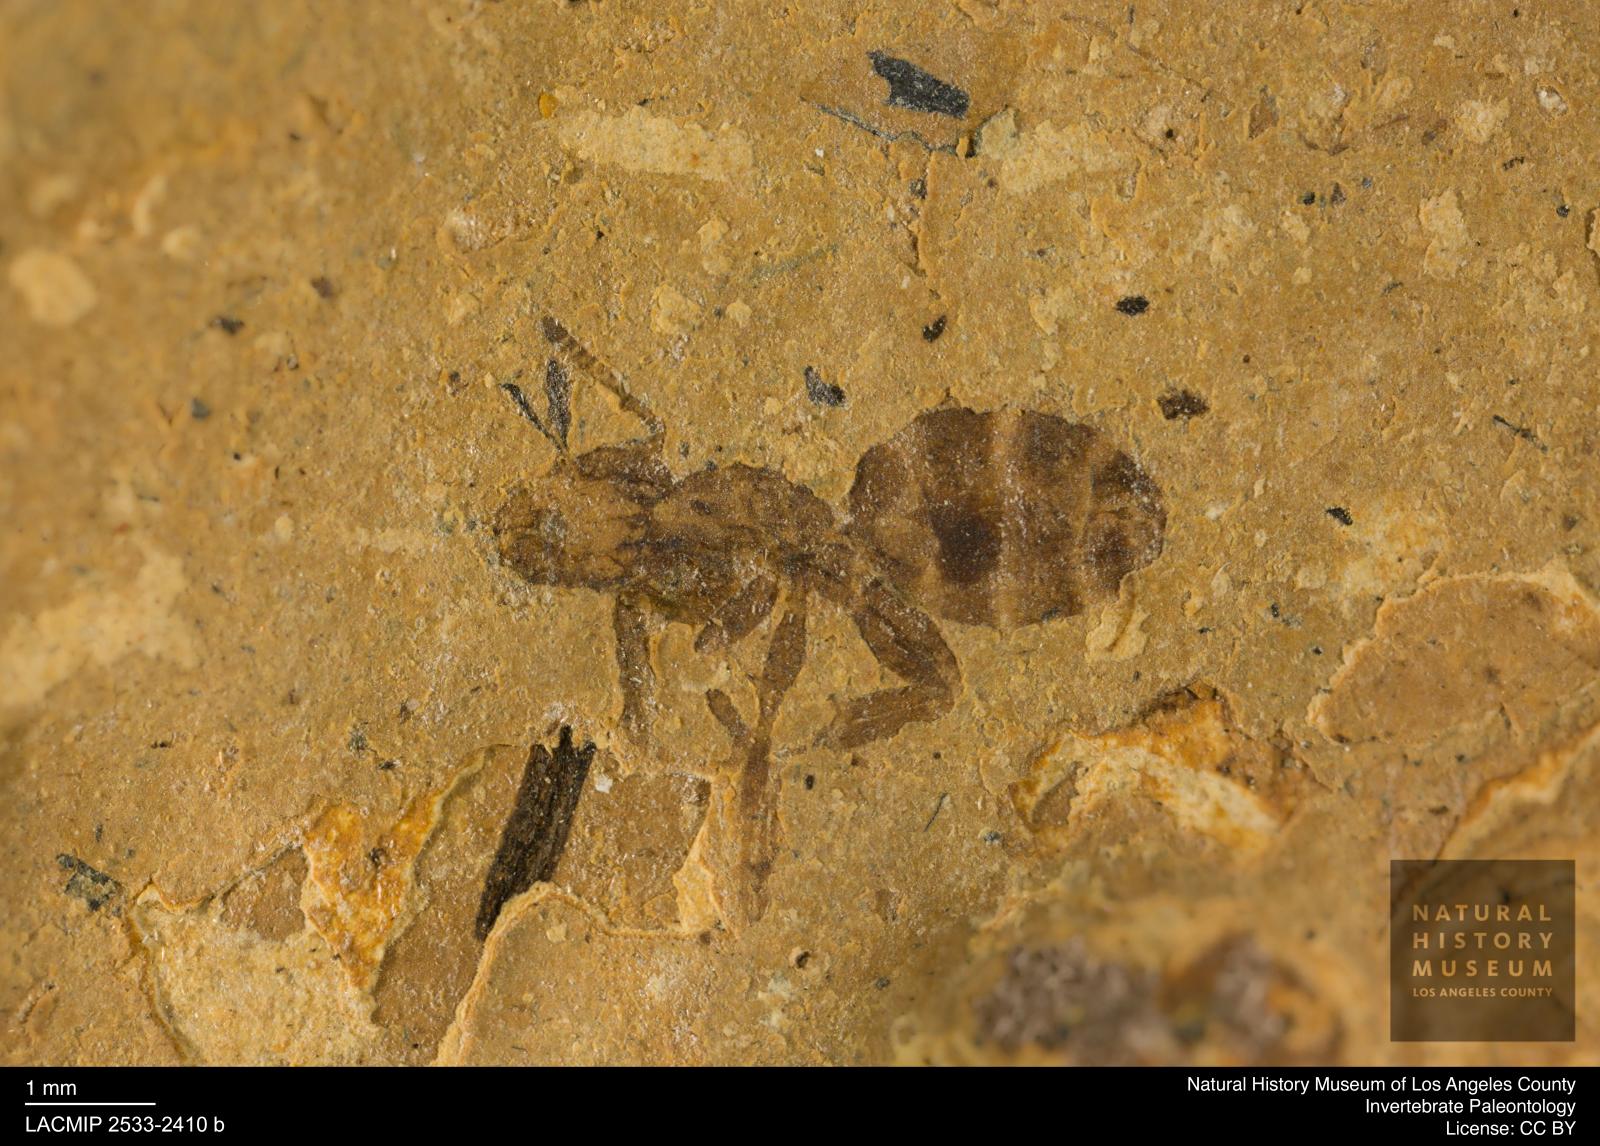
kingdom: Animalia
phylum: Arthropoda
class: Insecta
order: Hymenoptera
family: Formicidae
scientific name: Formicidae
